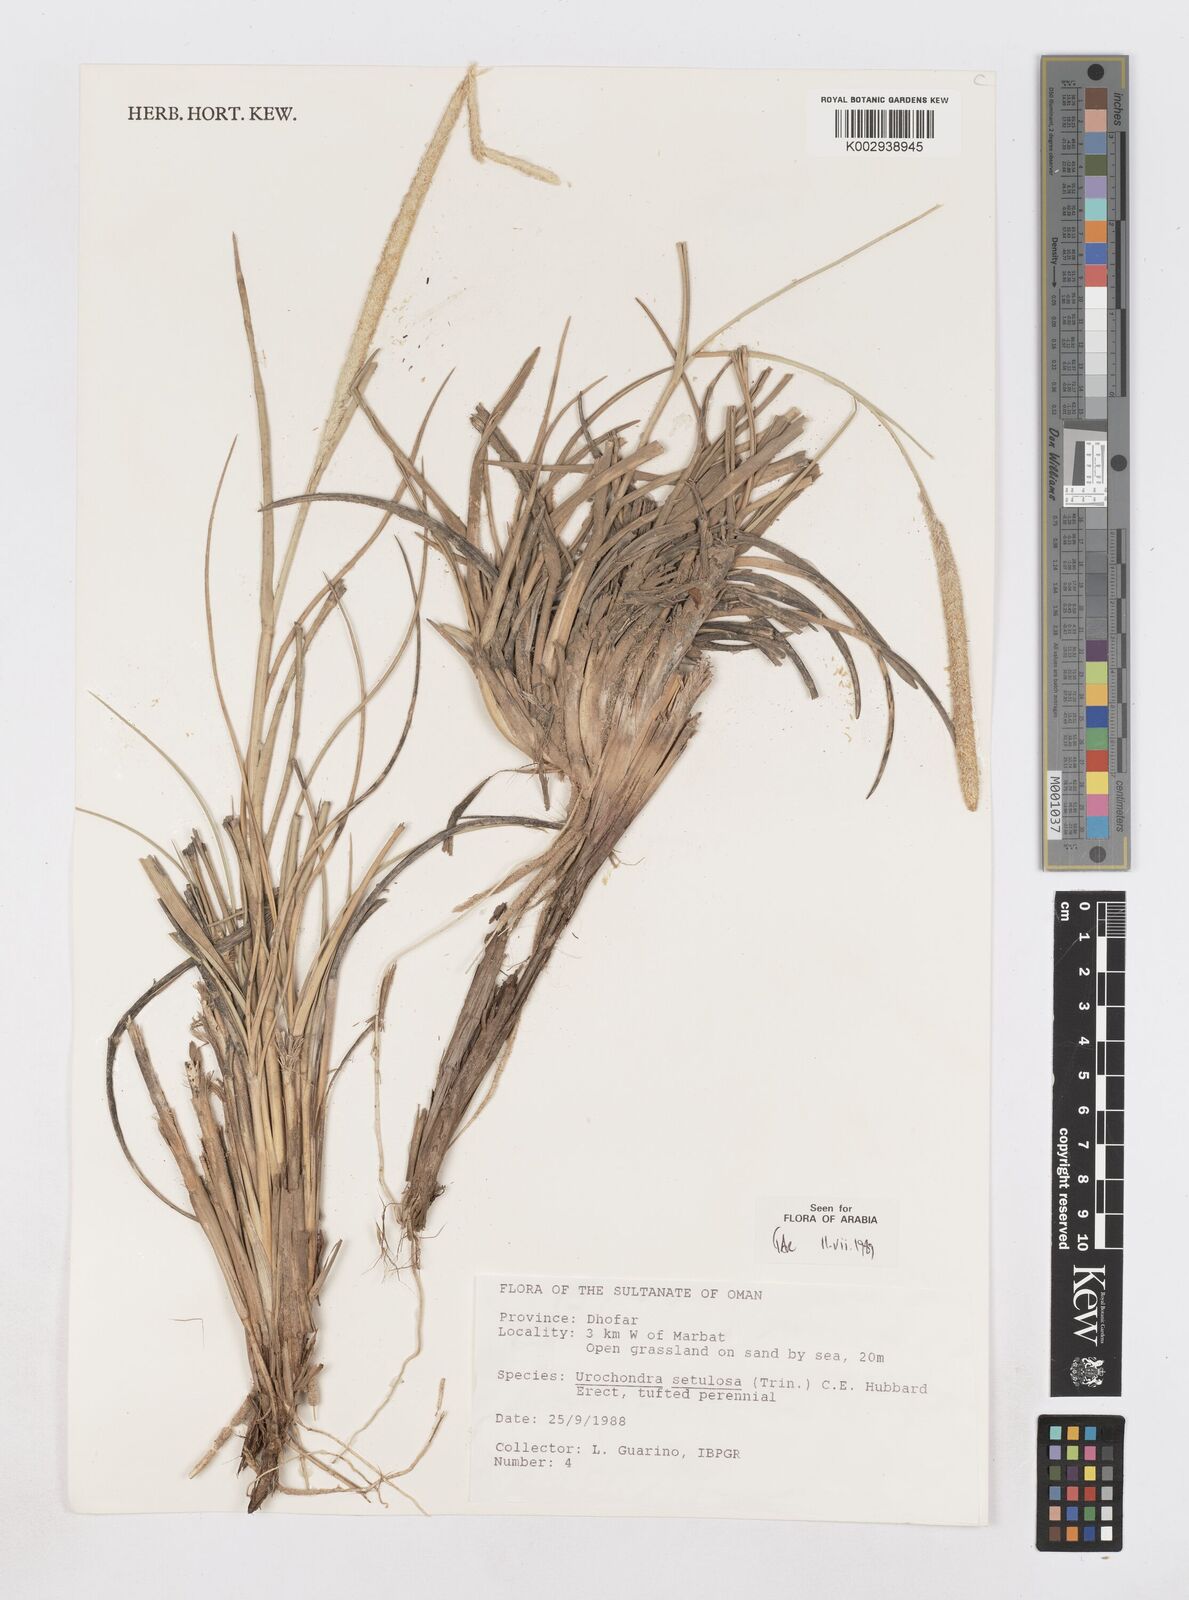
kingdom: Plantae
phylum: Tracheophyta
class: Liliopsida
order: Poales
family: Poaceae
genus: Urochondra
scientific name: Urochondra setulosa
